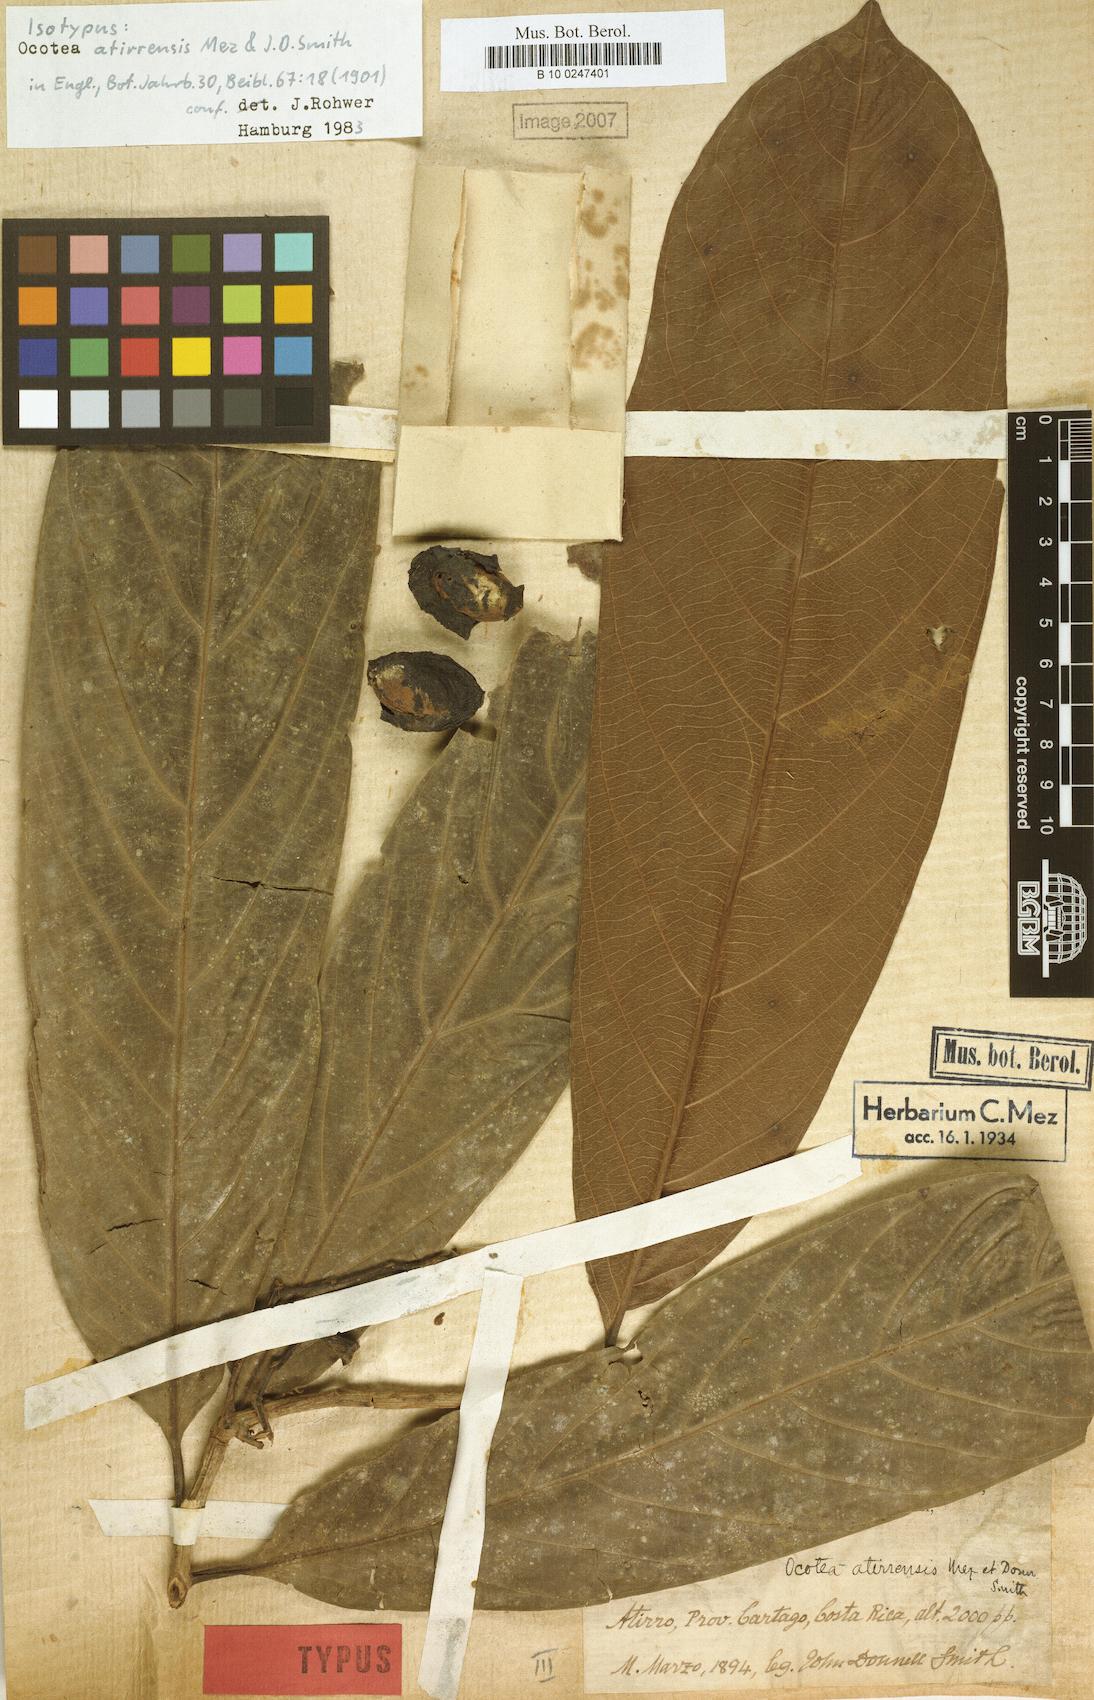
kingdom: Plantae
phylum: Tracheophyta
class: Magnoliopsida
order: Laurales
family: Lauraceae
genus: Ocotea
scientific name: Ocotea atirrensis
